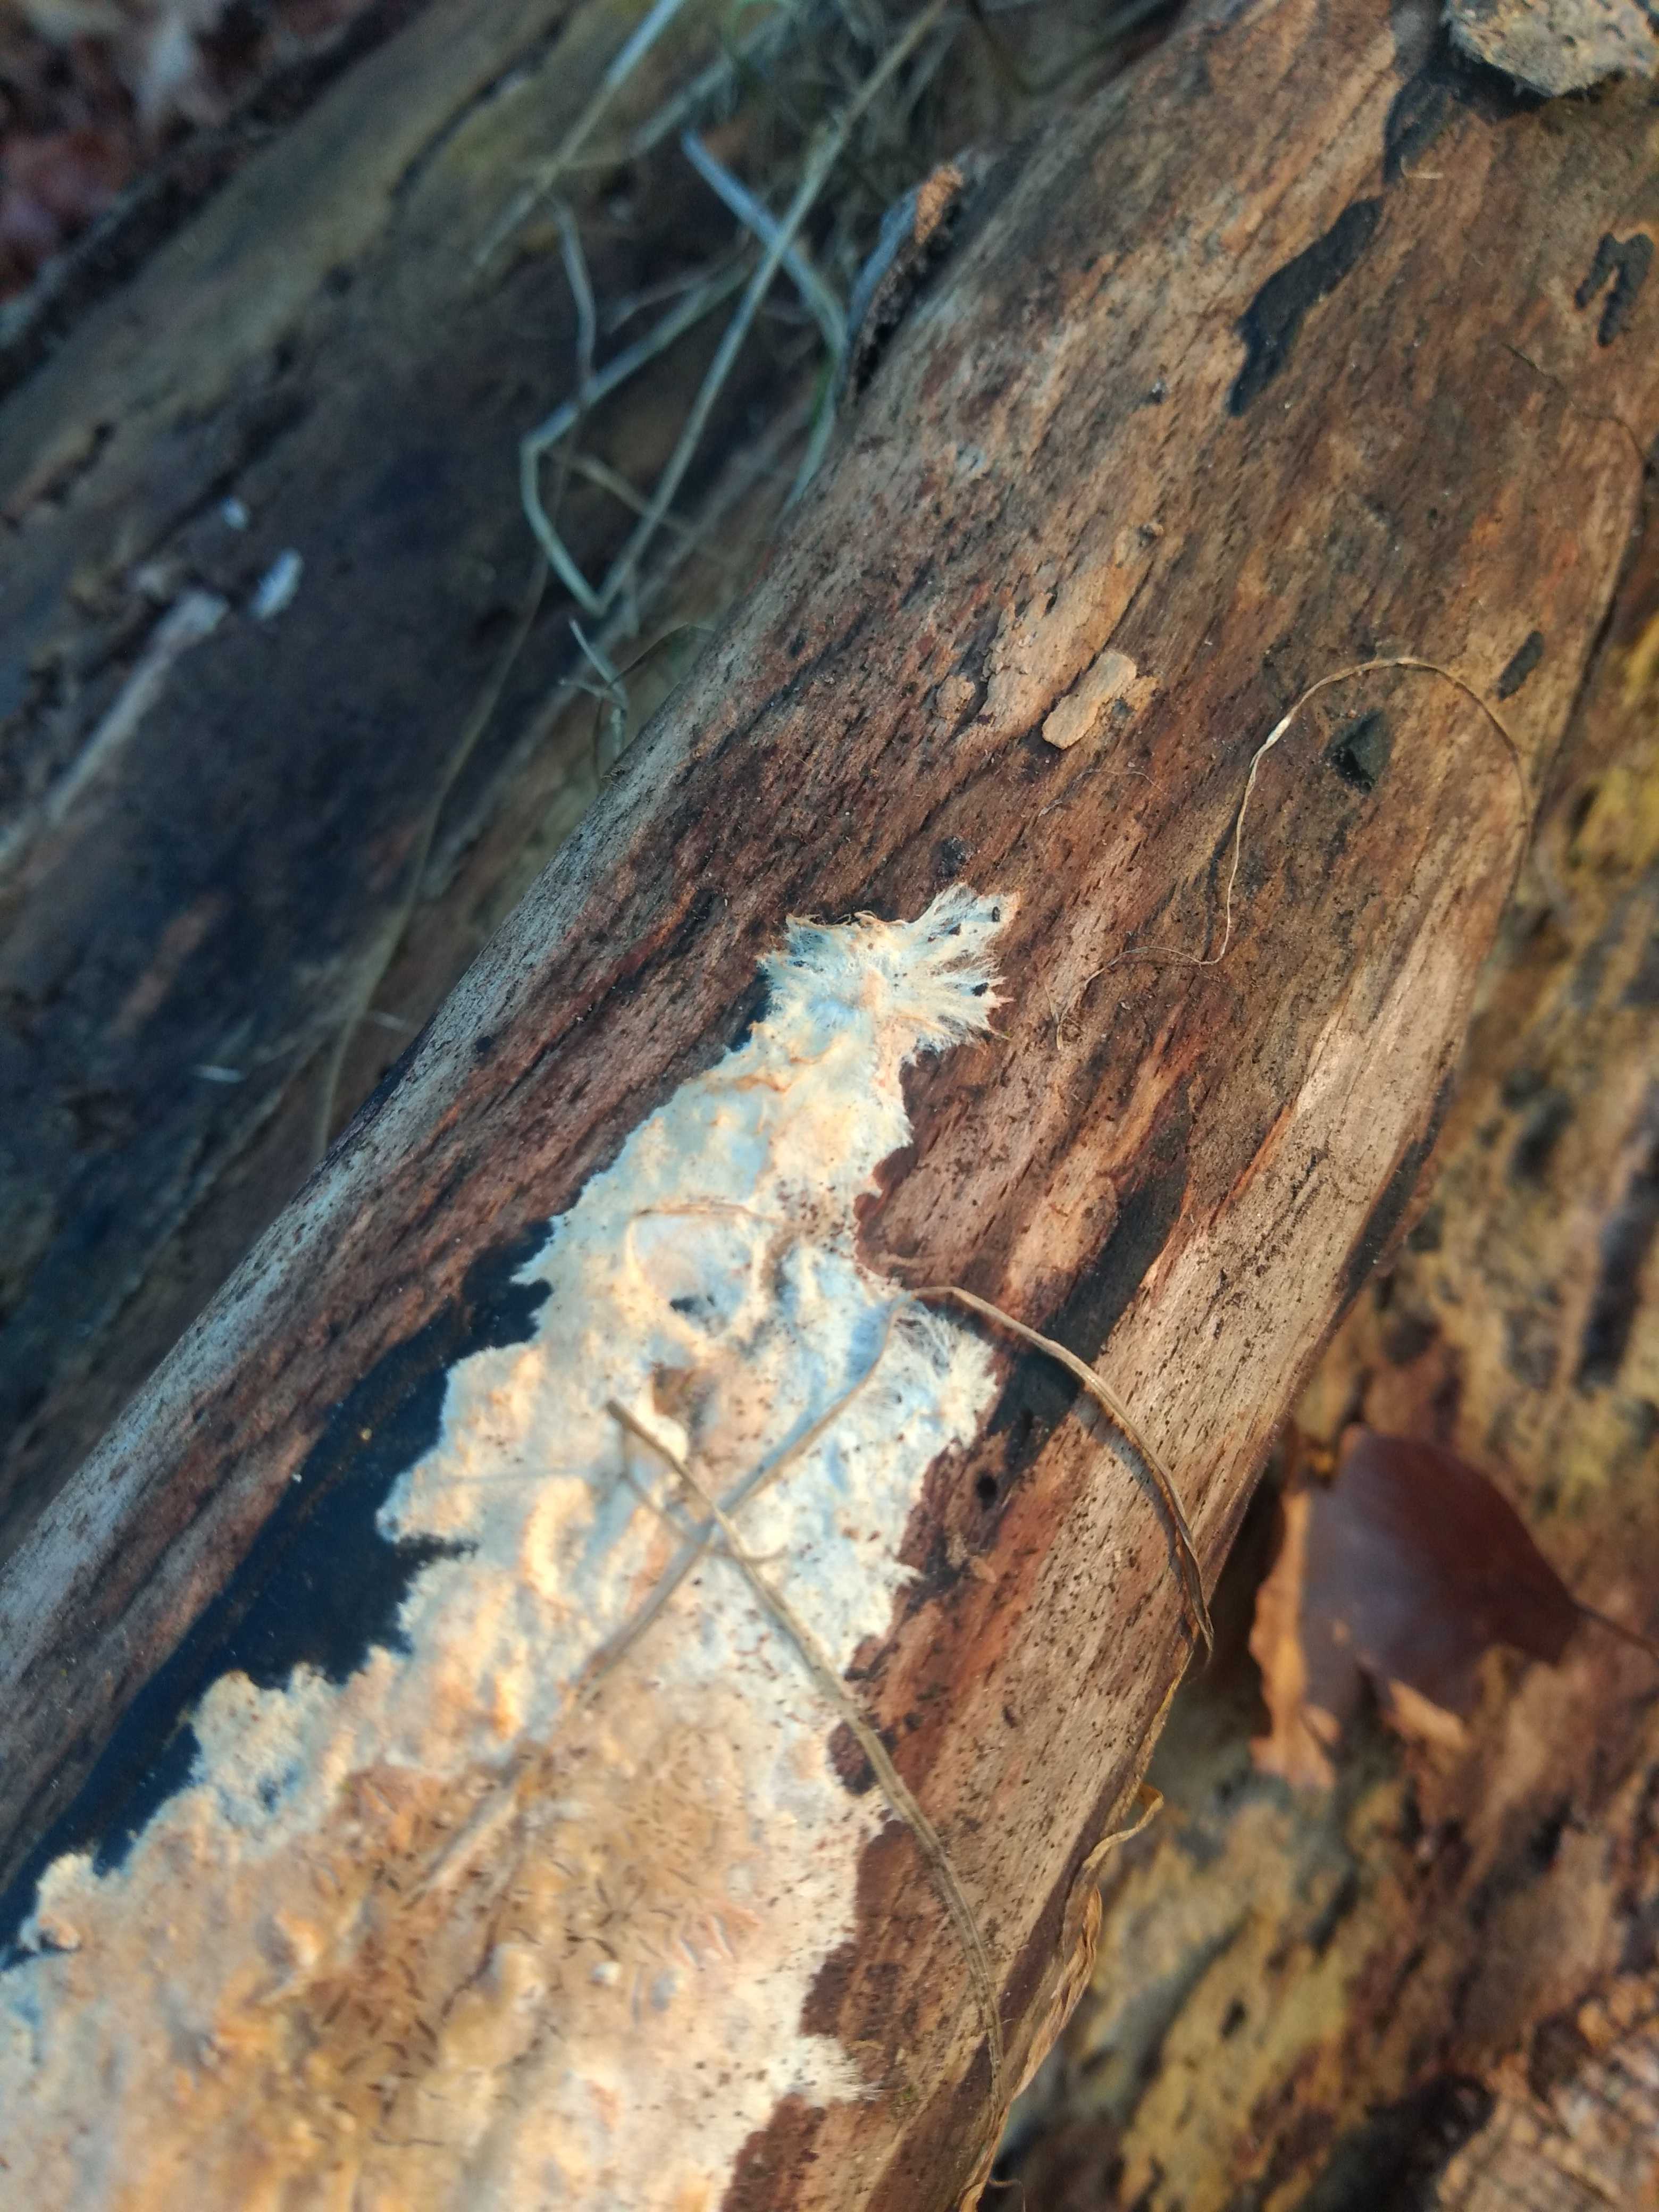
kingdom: Fungi
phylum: Basidiomycota
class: Agaricomycetes
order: Corticiales
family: Corticiaceae
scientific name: Corticiaceae
